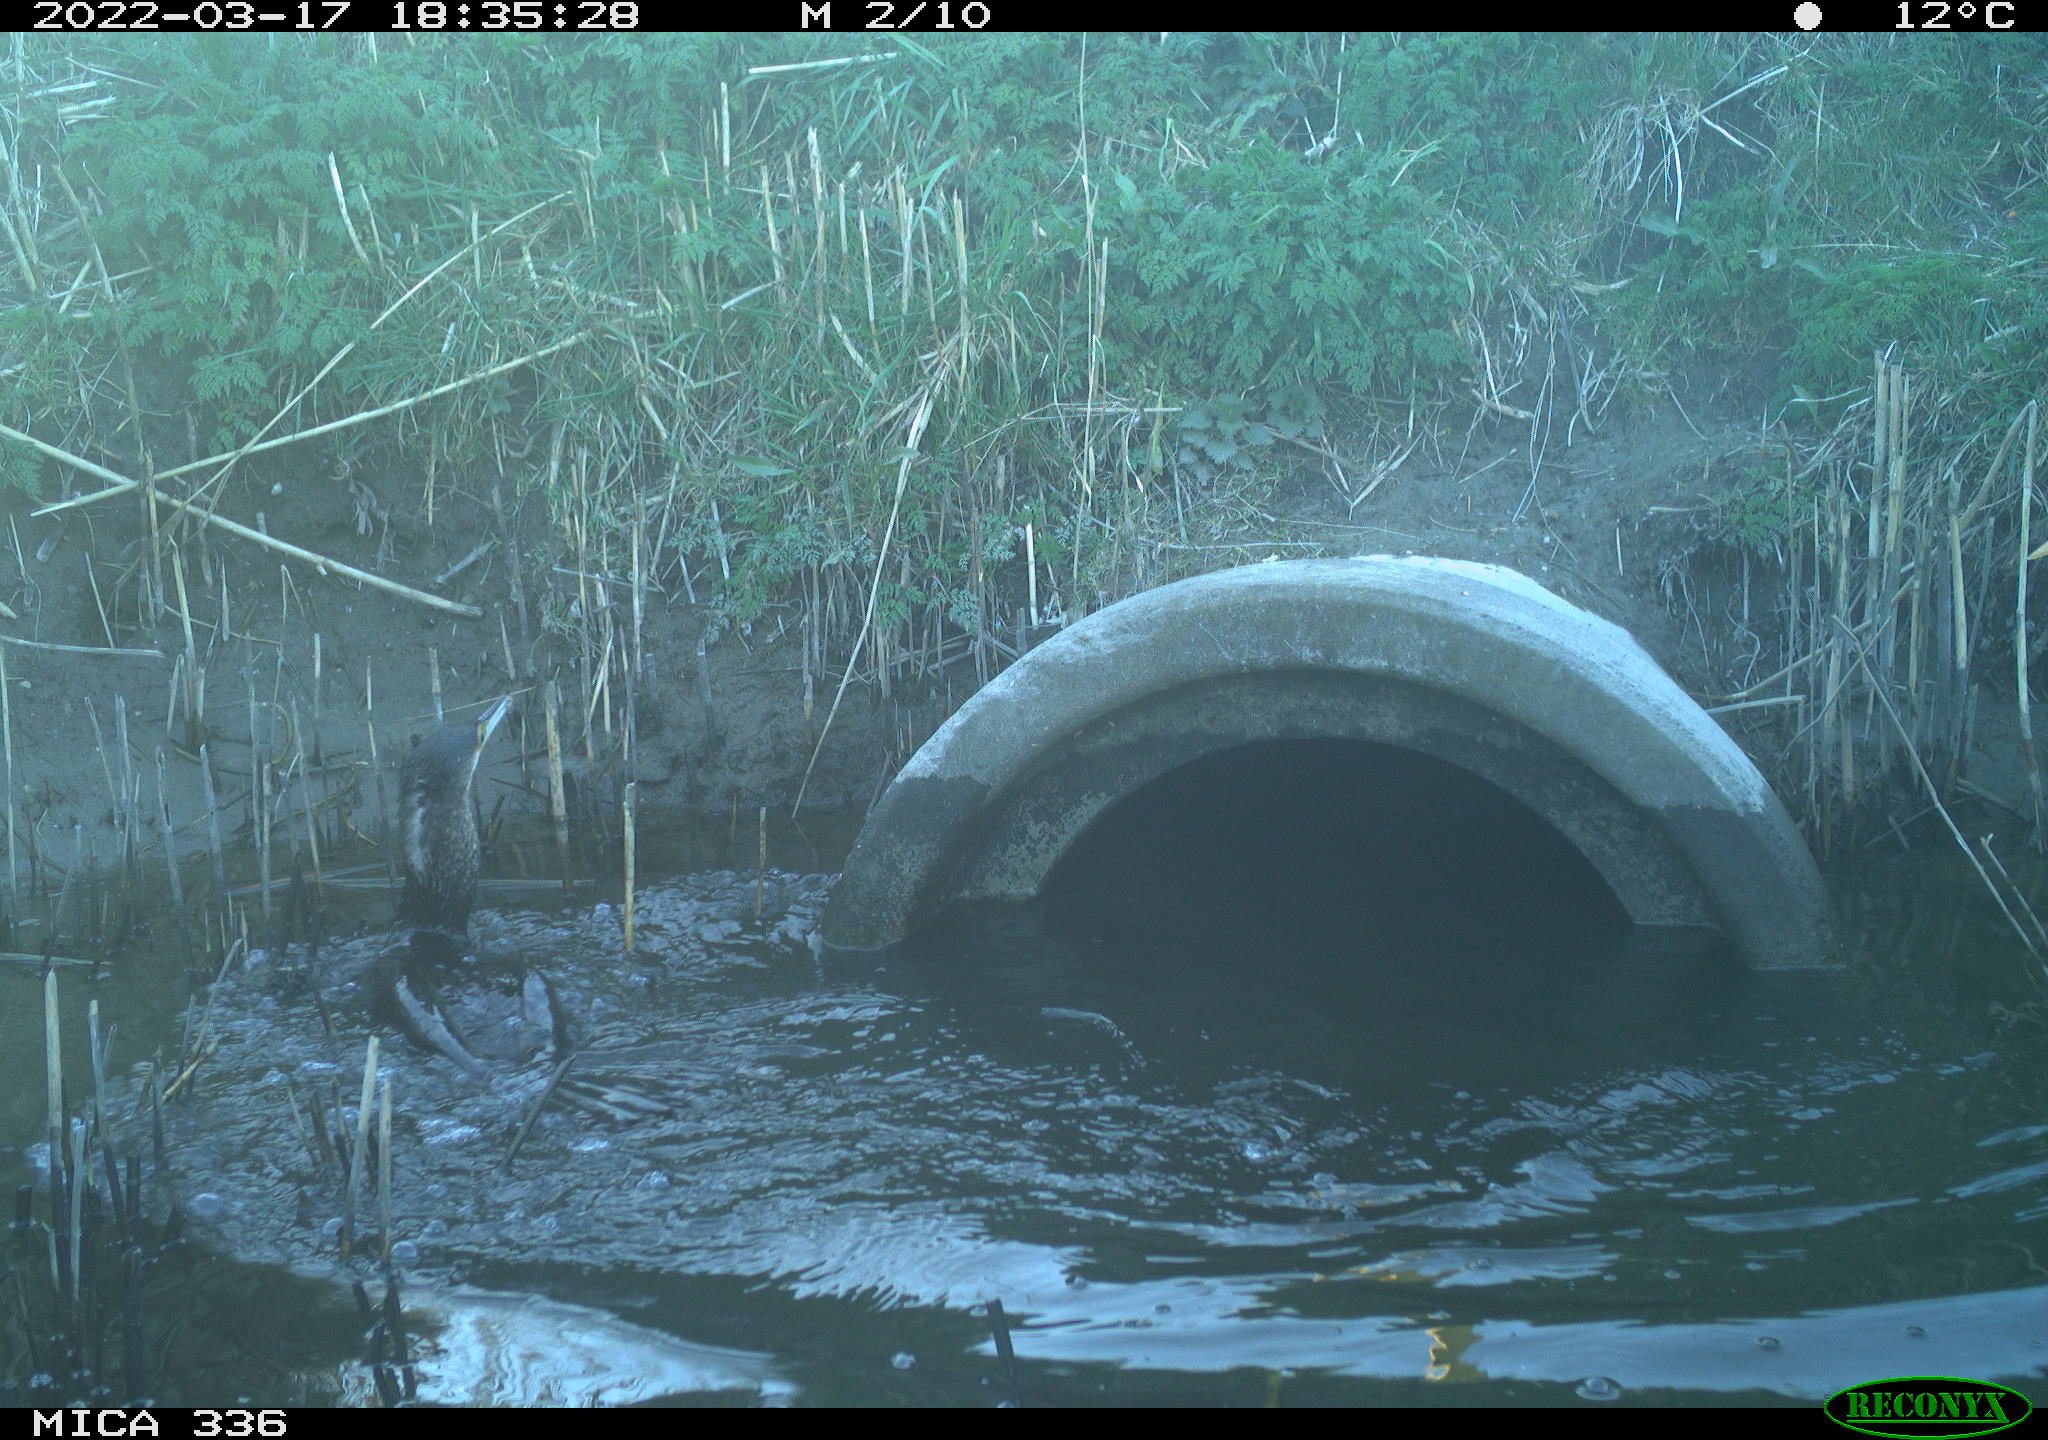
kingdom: Animalia
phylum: Chordata
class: Aves
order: Suliformes
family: Phalacrocoracidae
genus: Phalacrocorax
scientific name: Phalacrocorax carbo
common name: Great cormorant
